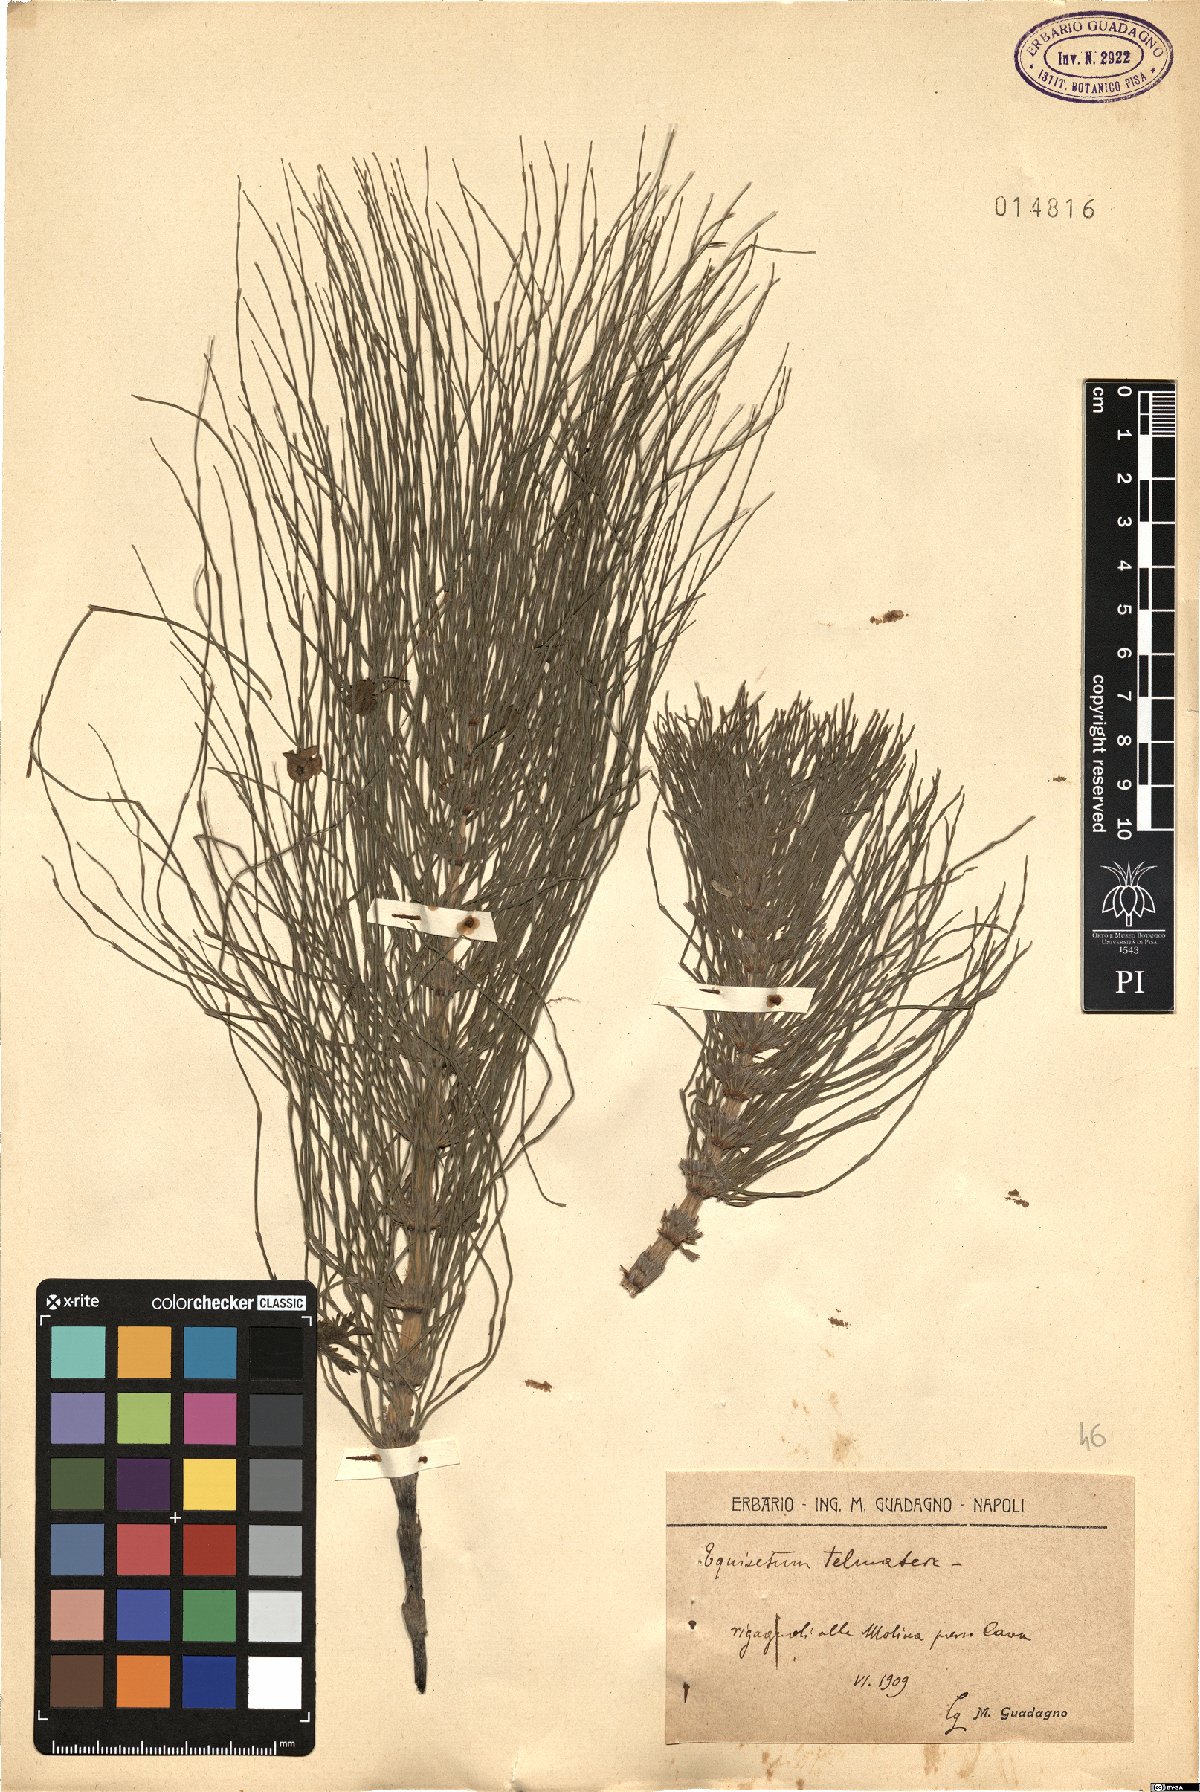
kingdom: Plantae
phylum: Tracheophyta
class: Polypodiopsida
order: Equisetales
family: Equisetaceae
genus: Equisetum
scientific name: Equisetum telmateia
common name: Great horsetail
